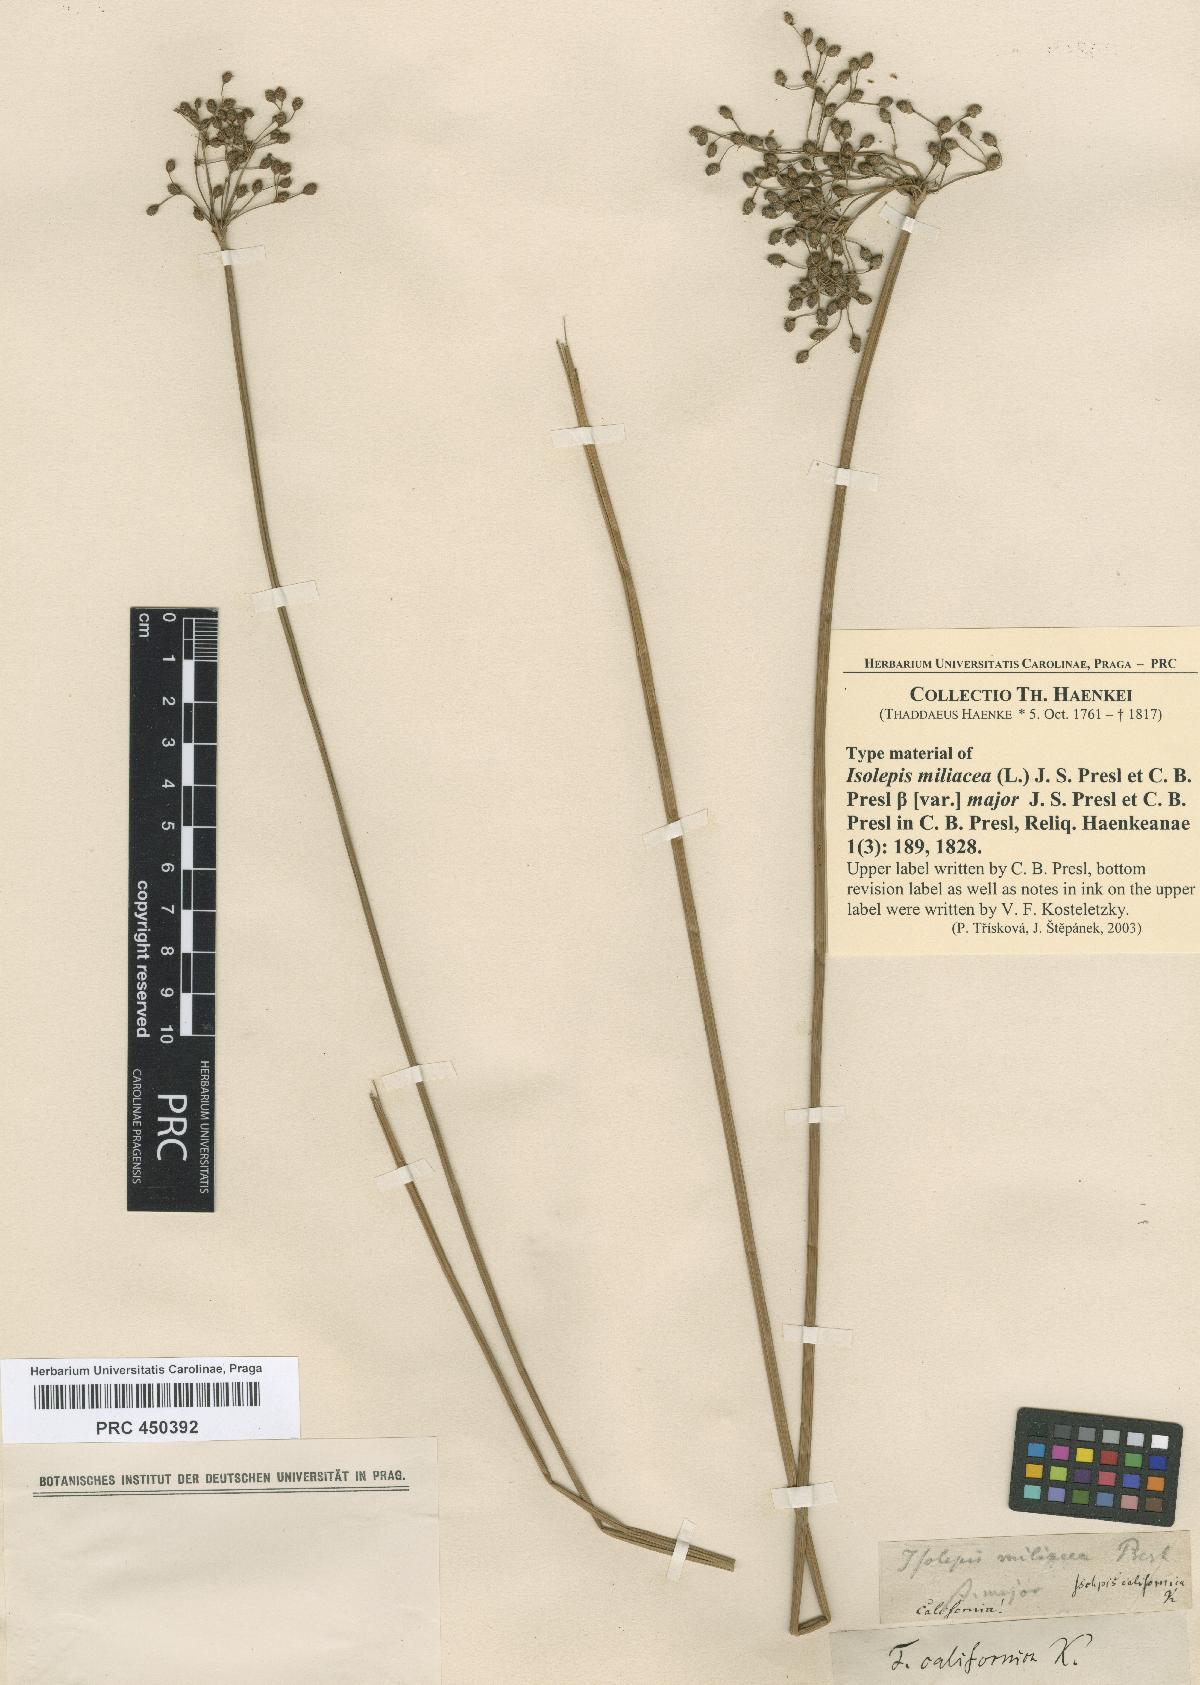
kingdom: Plantae
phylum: Tracheophyta
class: Liliopsida
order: Poales
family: Cyperaceae
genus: Fimbristylis
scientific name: Fimbristylis quinquangularis
